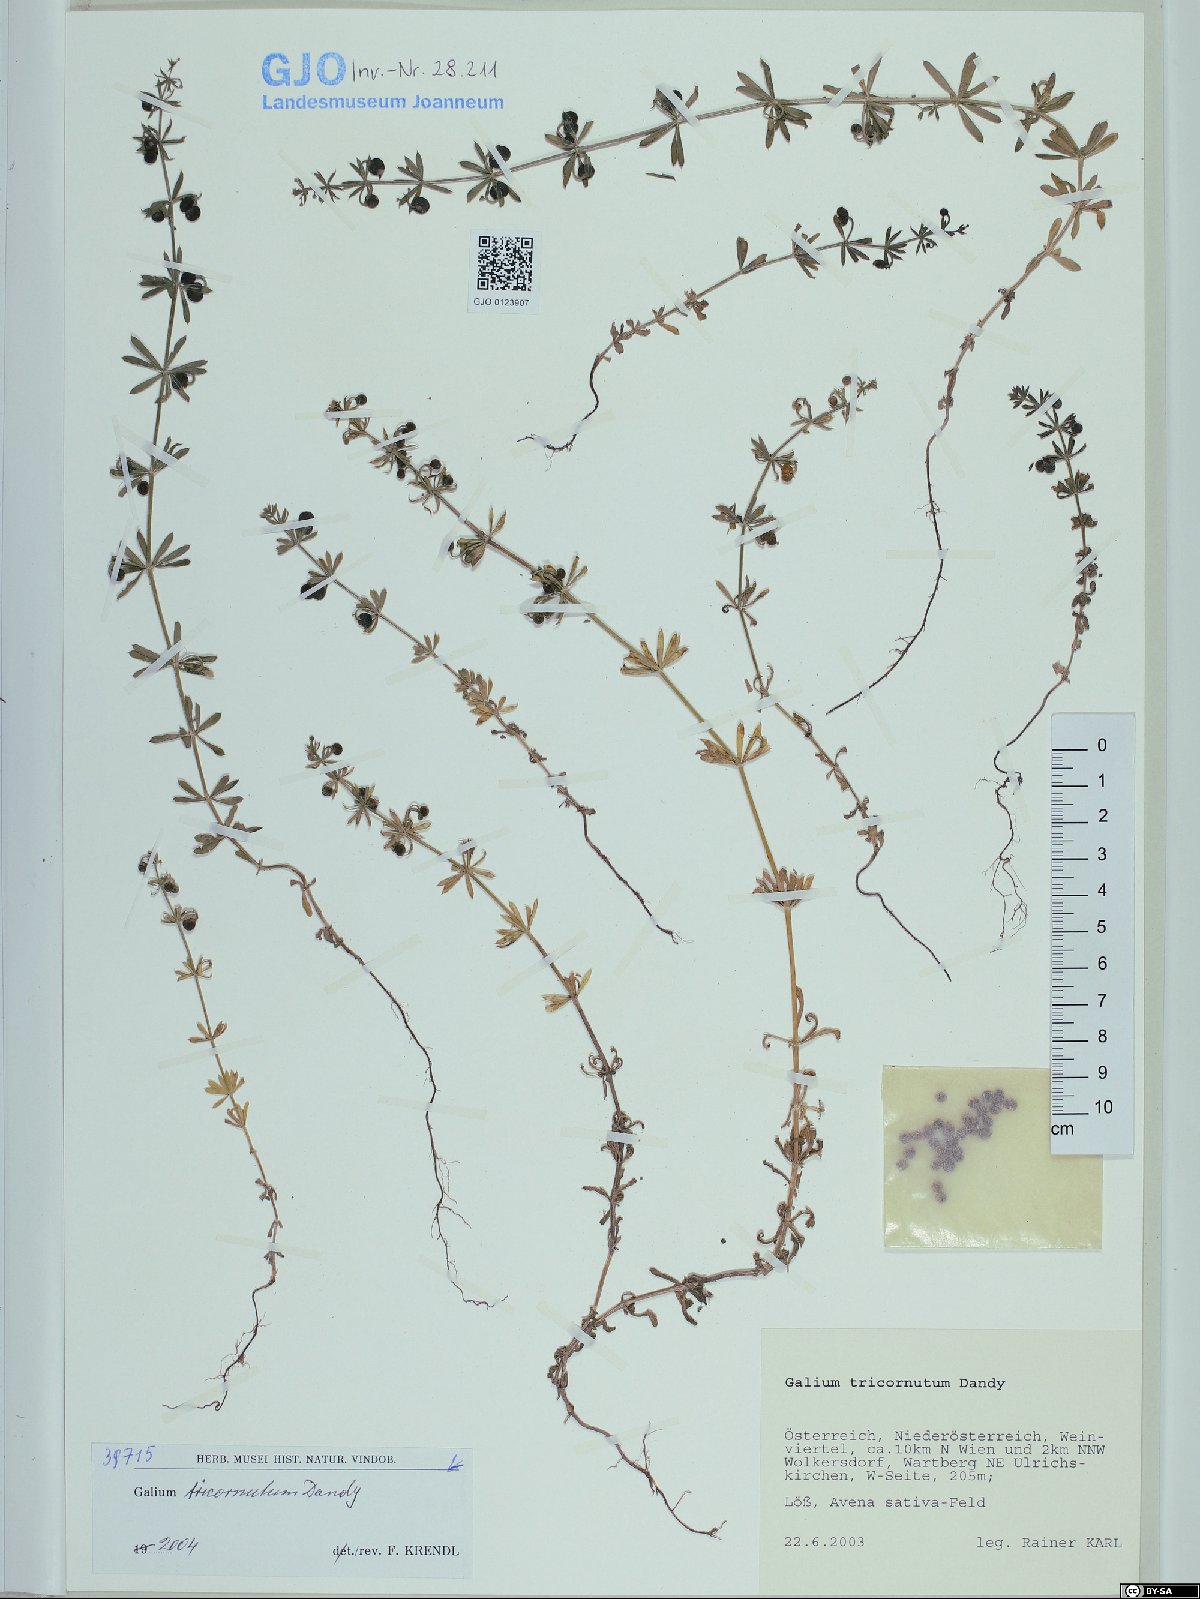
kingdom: Plantae
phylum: Tracheophyta
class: Magnoliopsida
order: Gentianales
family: Rubiaceae
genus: Galium
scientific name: Galium tricornutum
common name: Corn cleavers
